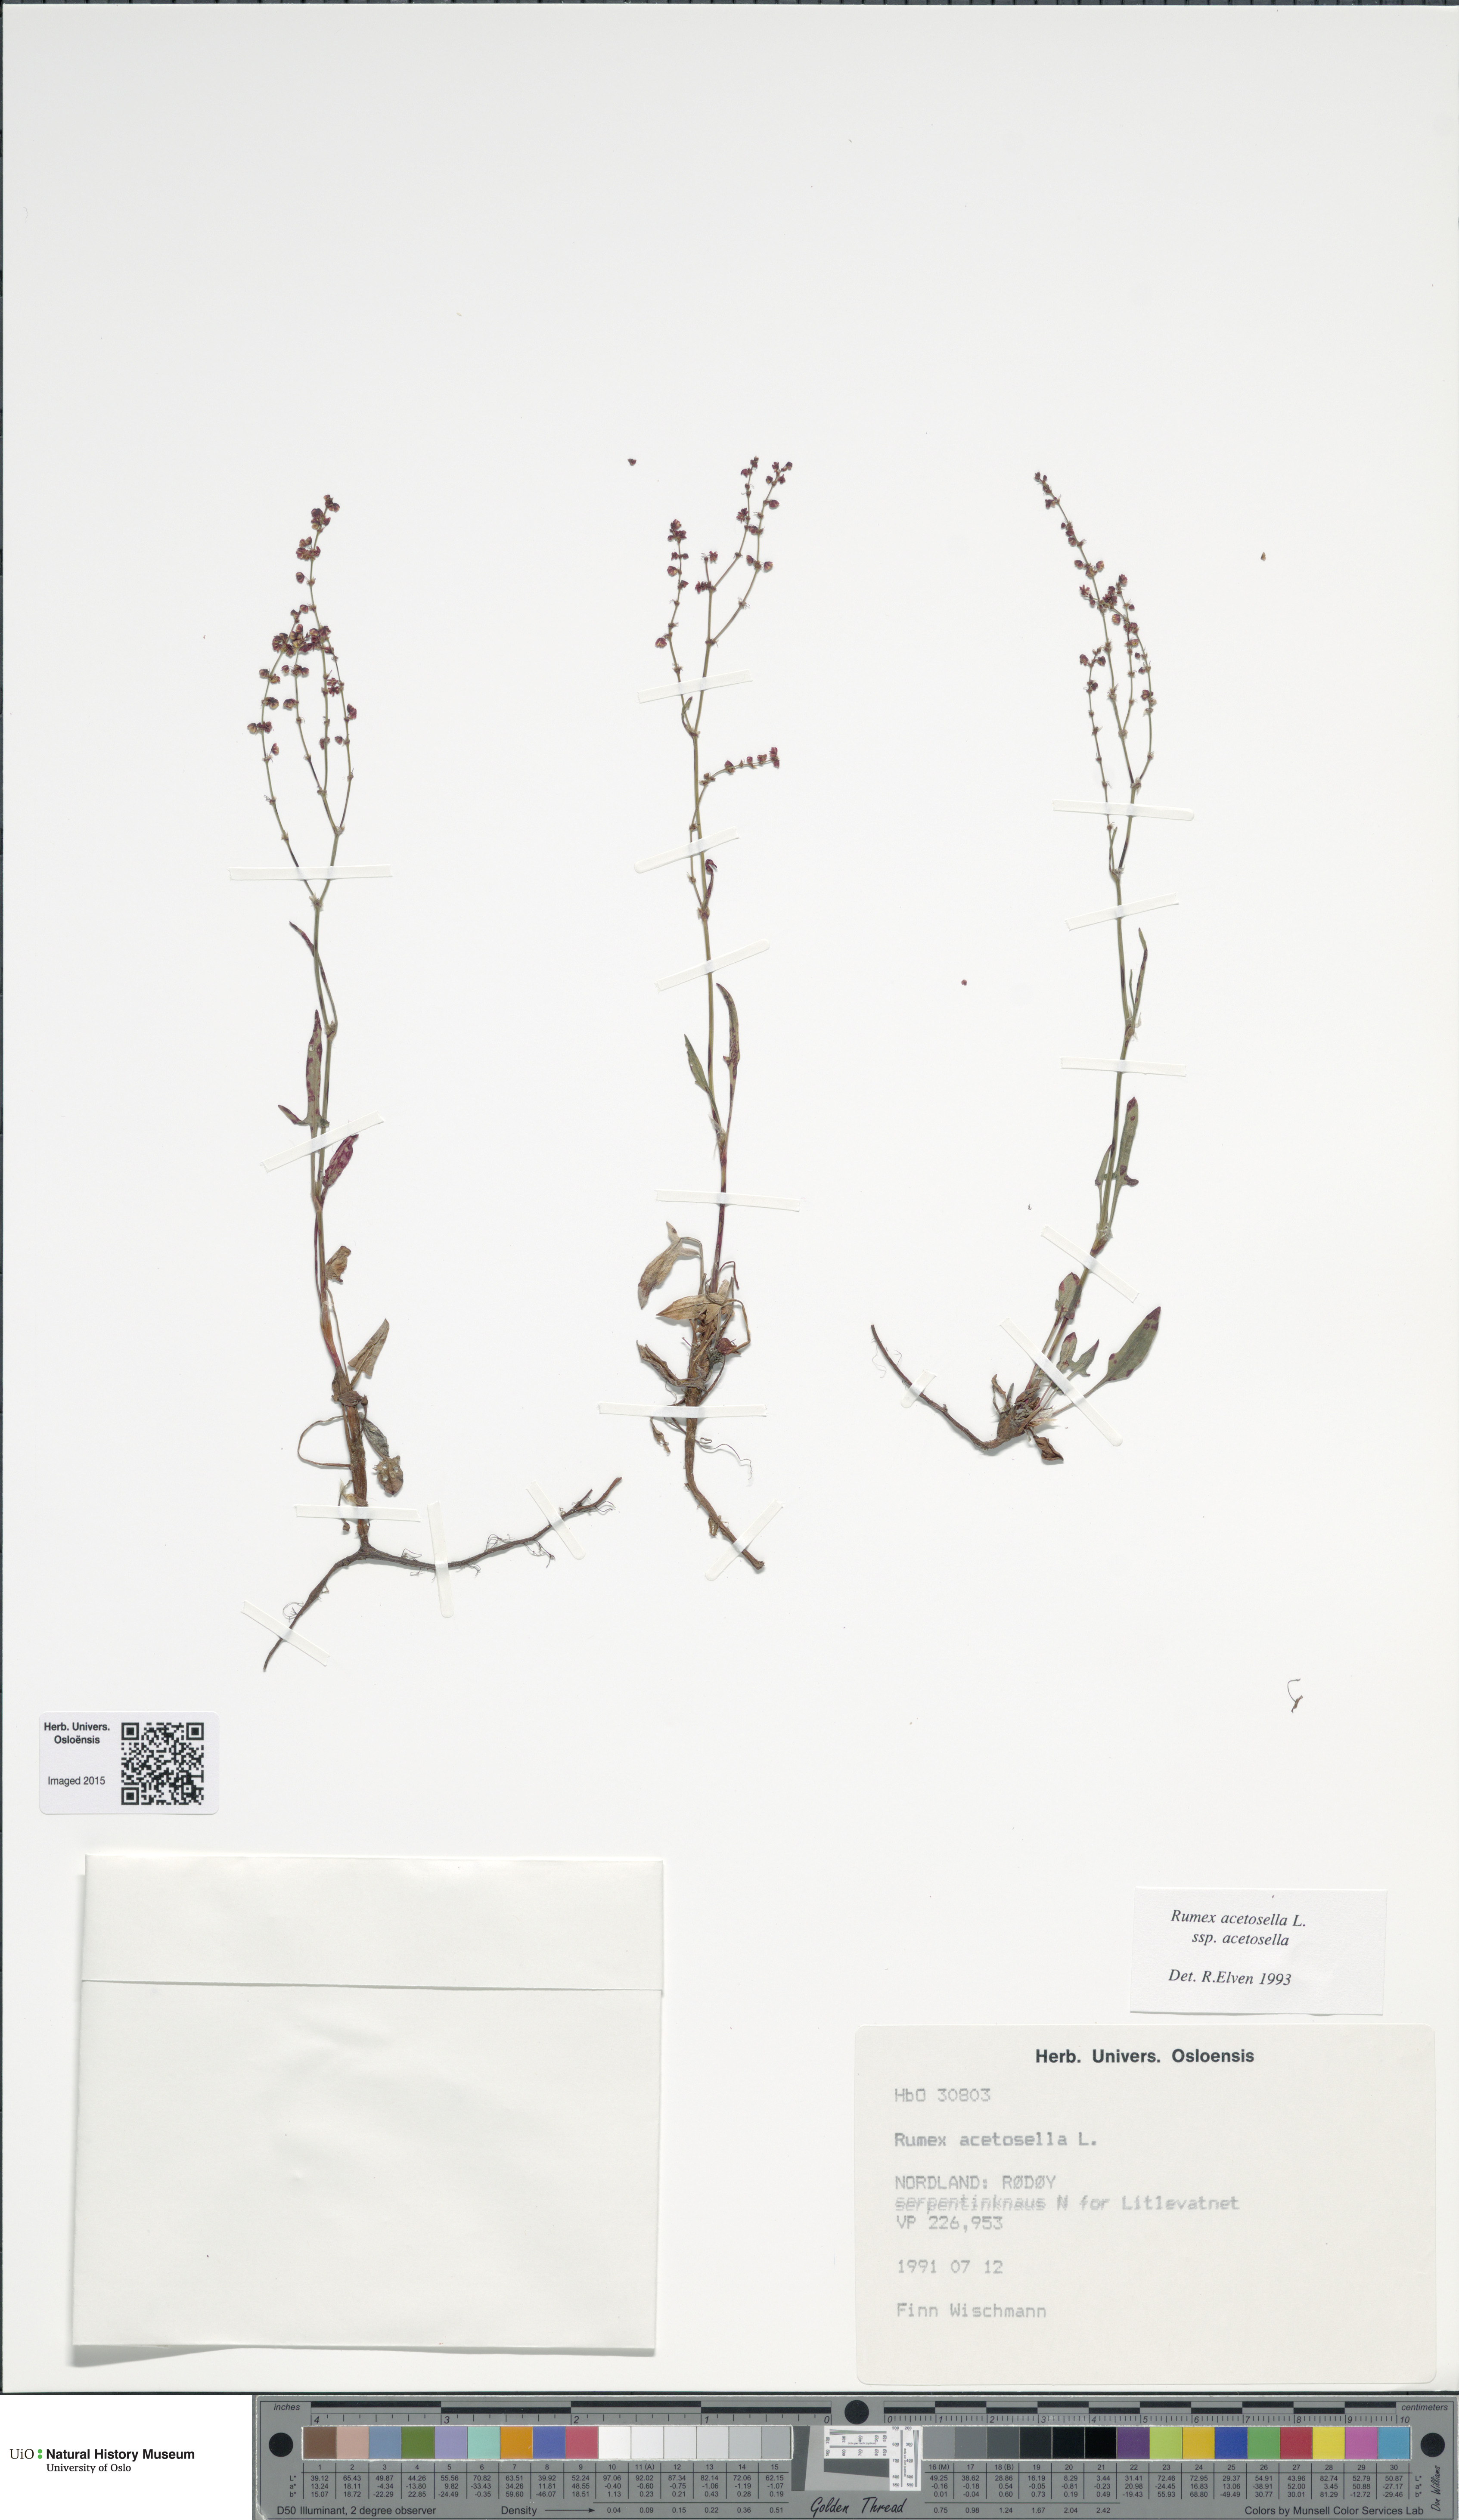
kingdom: Plantae
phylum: Tracheophyta
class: Magnoliopsida
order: Caryophyllales
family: Polygonaceae
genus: Rumex
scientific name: Rumex acetosella
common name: Common sheep sorrel
